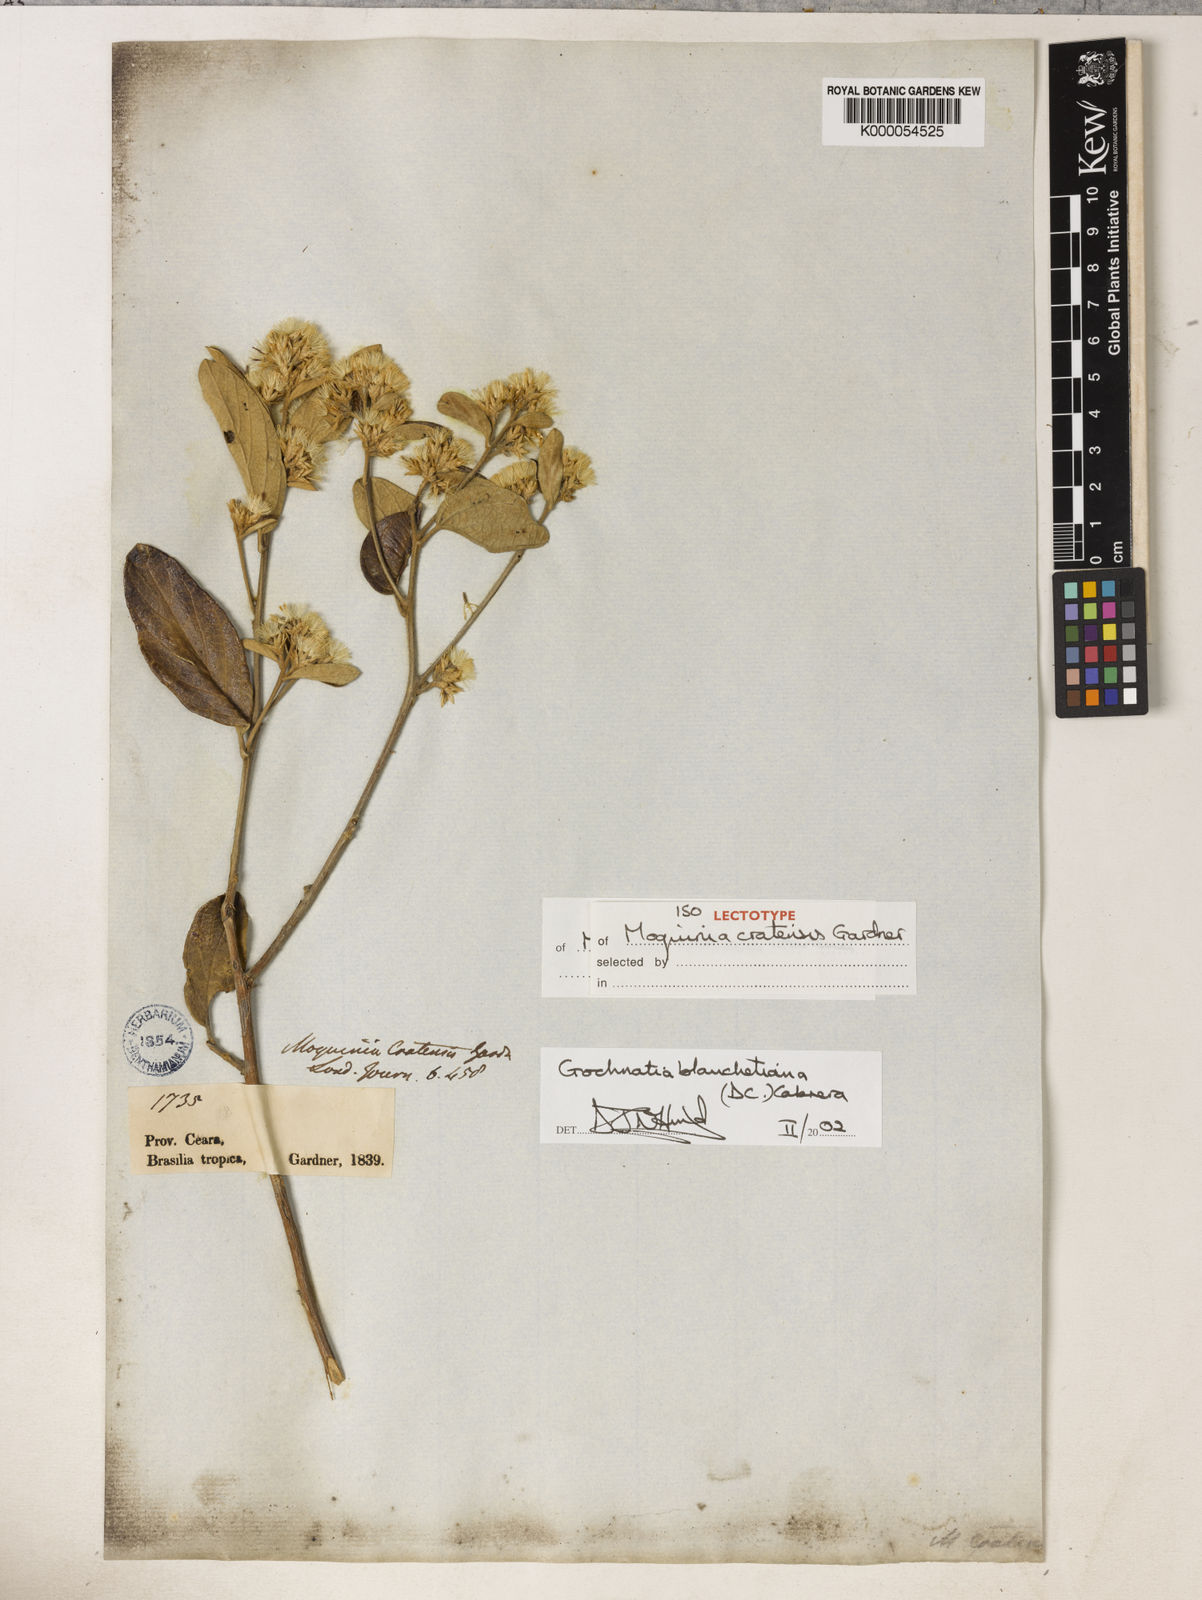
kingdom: Plantae
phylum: Tracheophyta
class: Magnoliopsida
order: Asterales
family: Asteraceae
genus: Moquiniastrum
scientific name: Moquiniastrum blanchetianum
